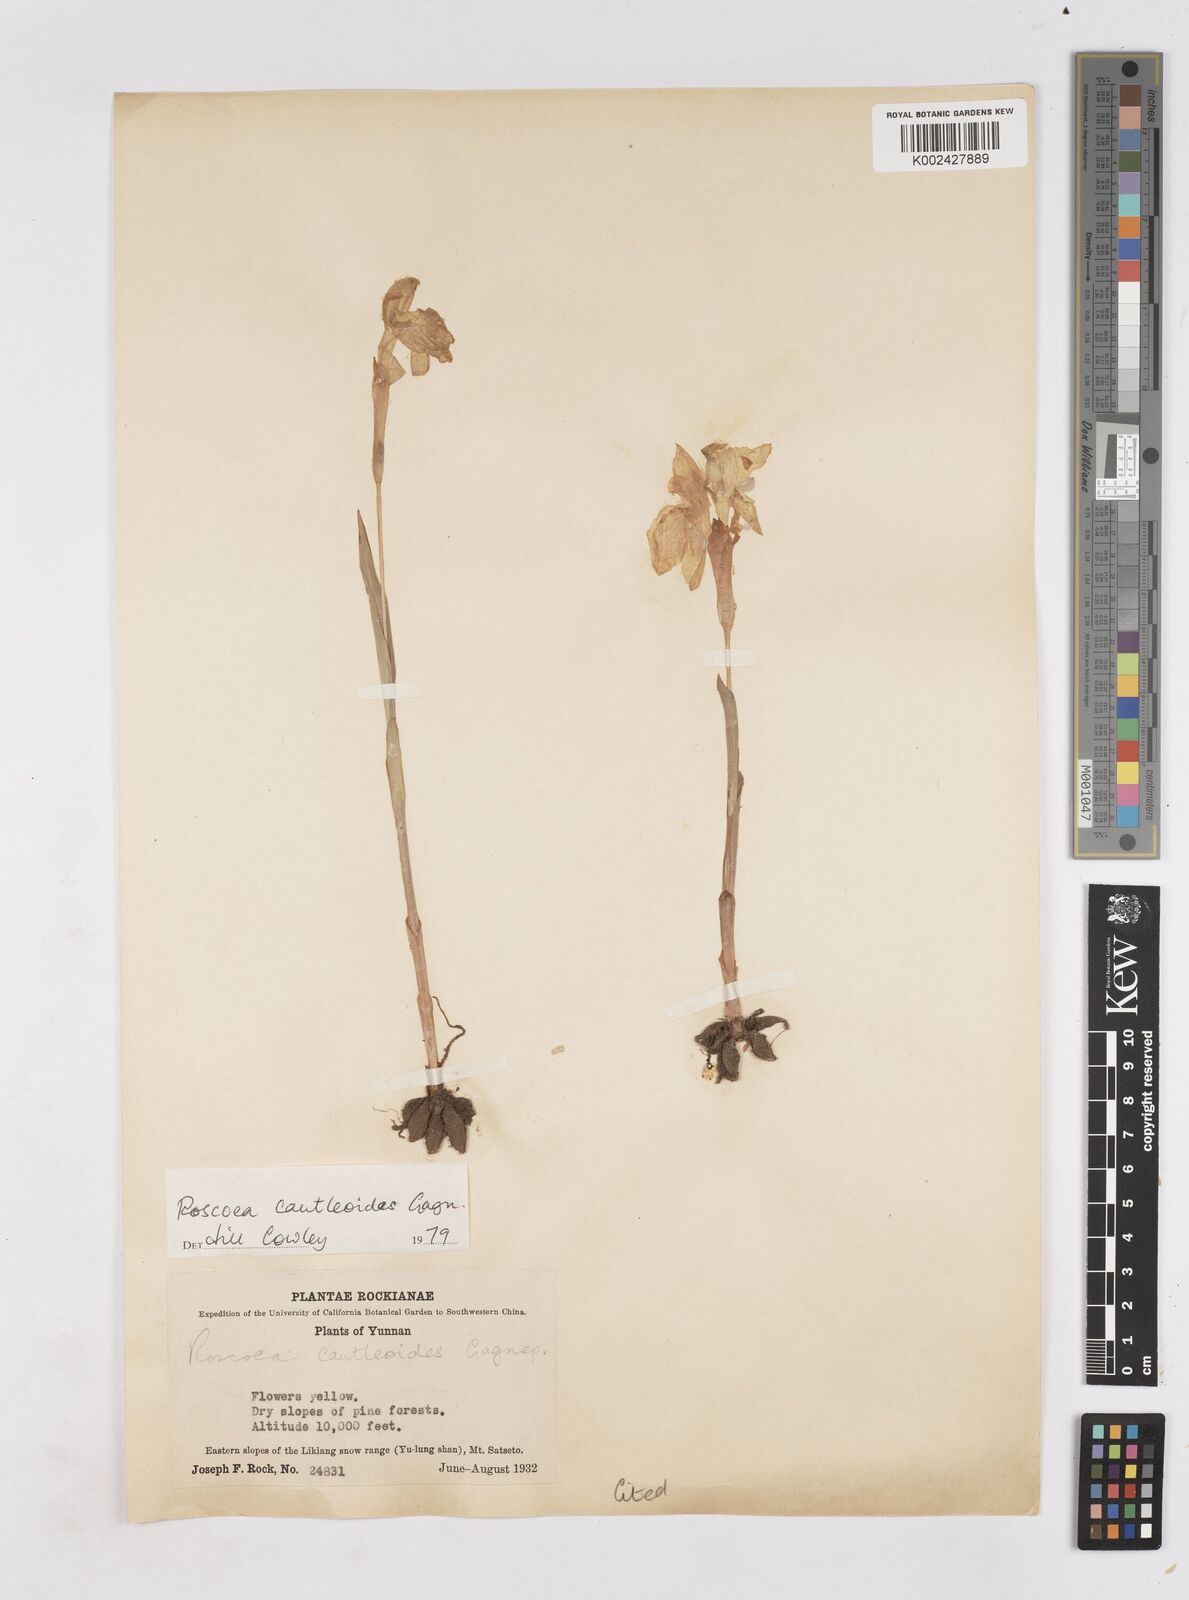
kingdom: Plantae
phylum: Tracheophyta
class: Liliopsida
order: Zingiberales
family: Zingiberaceae
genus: Roscoea
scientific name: Roscoea cautleyoides
